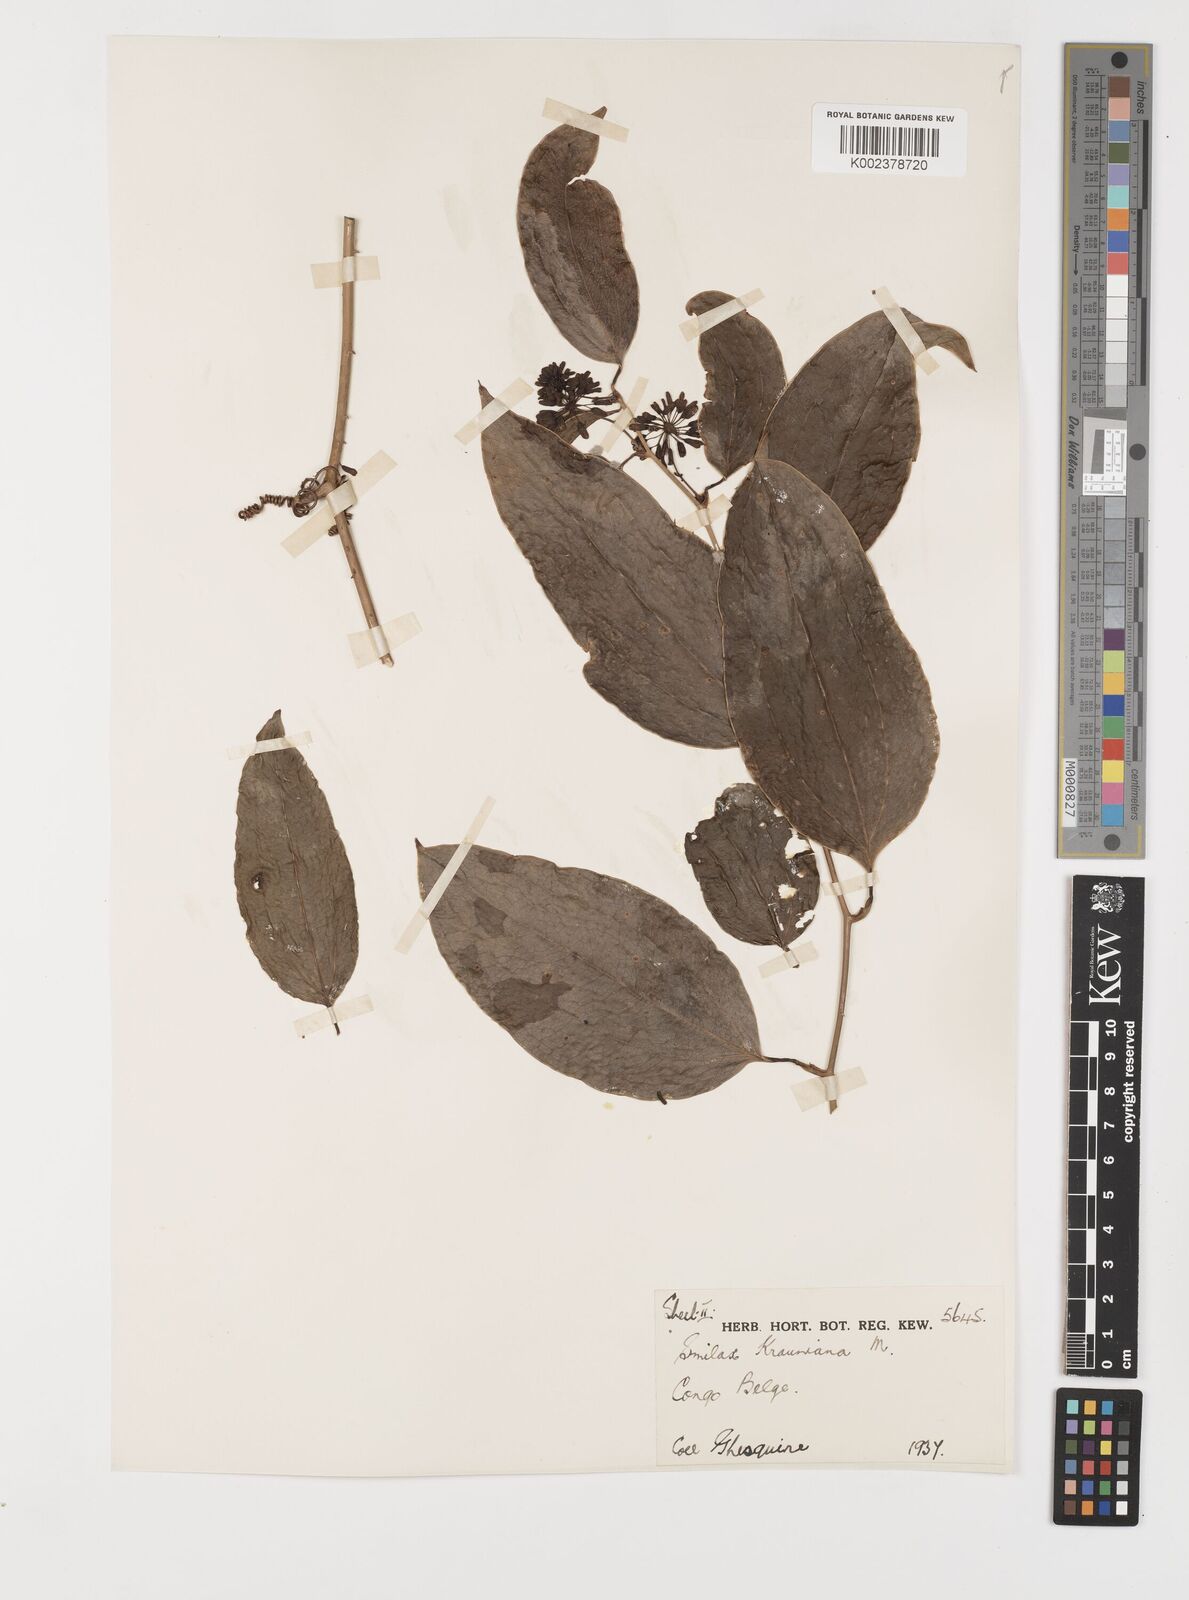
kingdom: Plantae
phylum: Tracheophyta
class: Liliopsida
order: Liliales
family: Smilacaceae
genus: Smilax
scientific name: Smilax anceps
